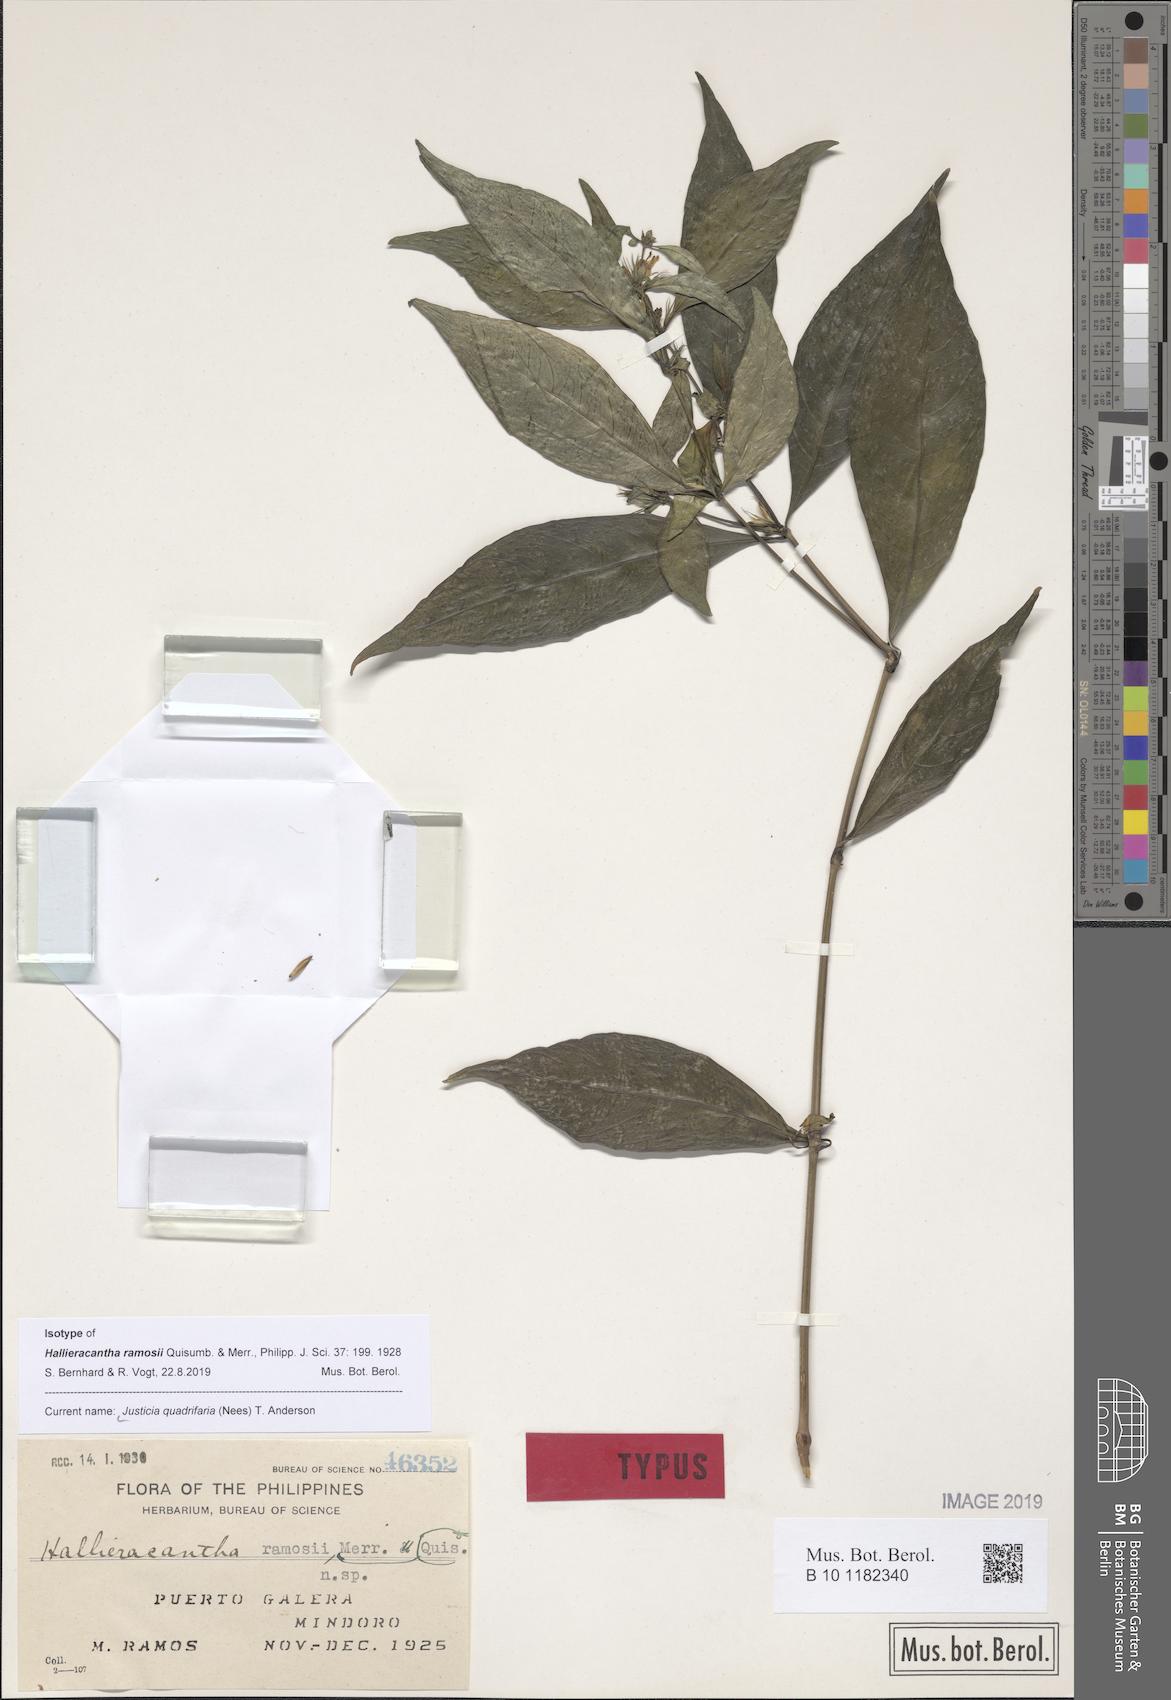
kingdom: Plantae
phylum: Tracheophyta
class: Magnoliopsida
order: Lamiales
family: Acanthaceae
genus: Justicia
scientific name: Justicia quadrifaria
